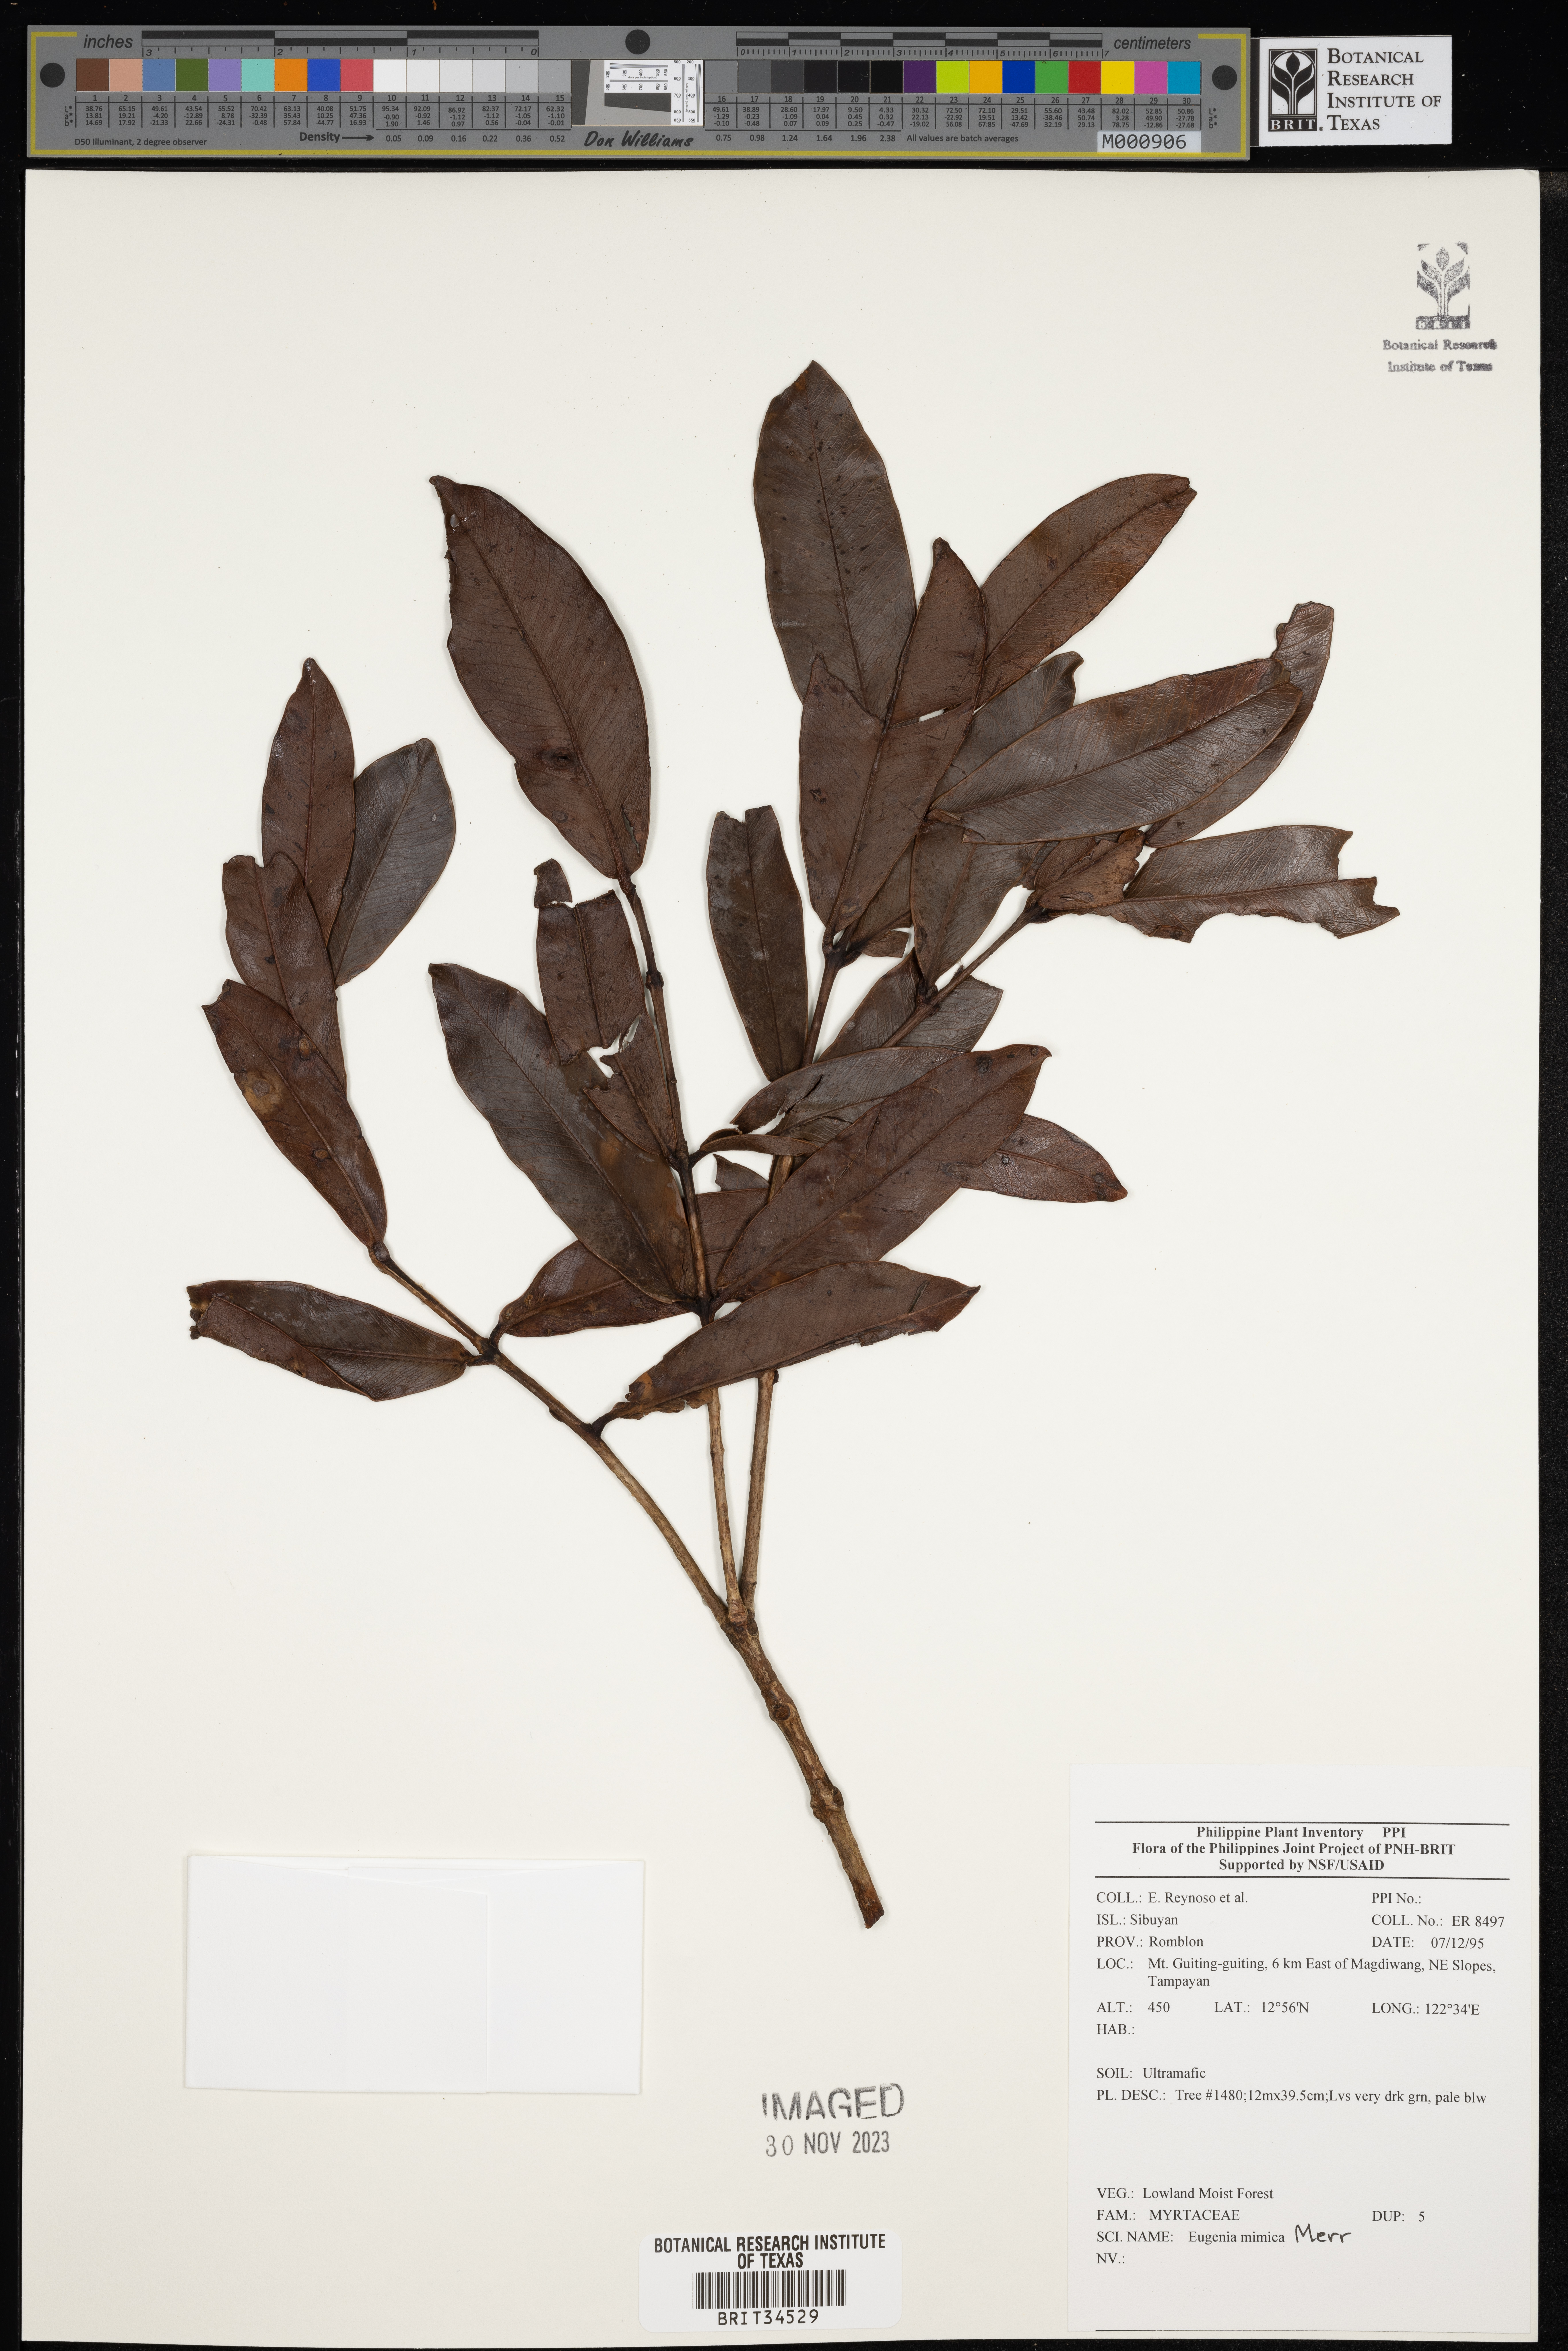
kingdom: Plantae
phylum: Tracheophyta
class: Magnoliopsida
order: Myrtales
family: Myrtaceae
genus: Eugenia
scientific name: Eugenia
